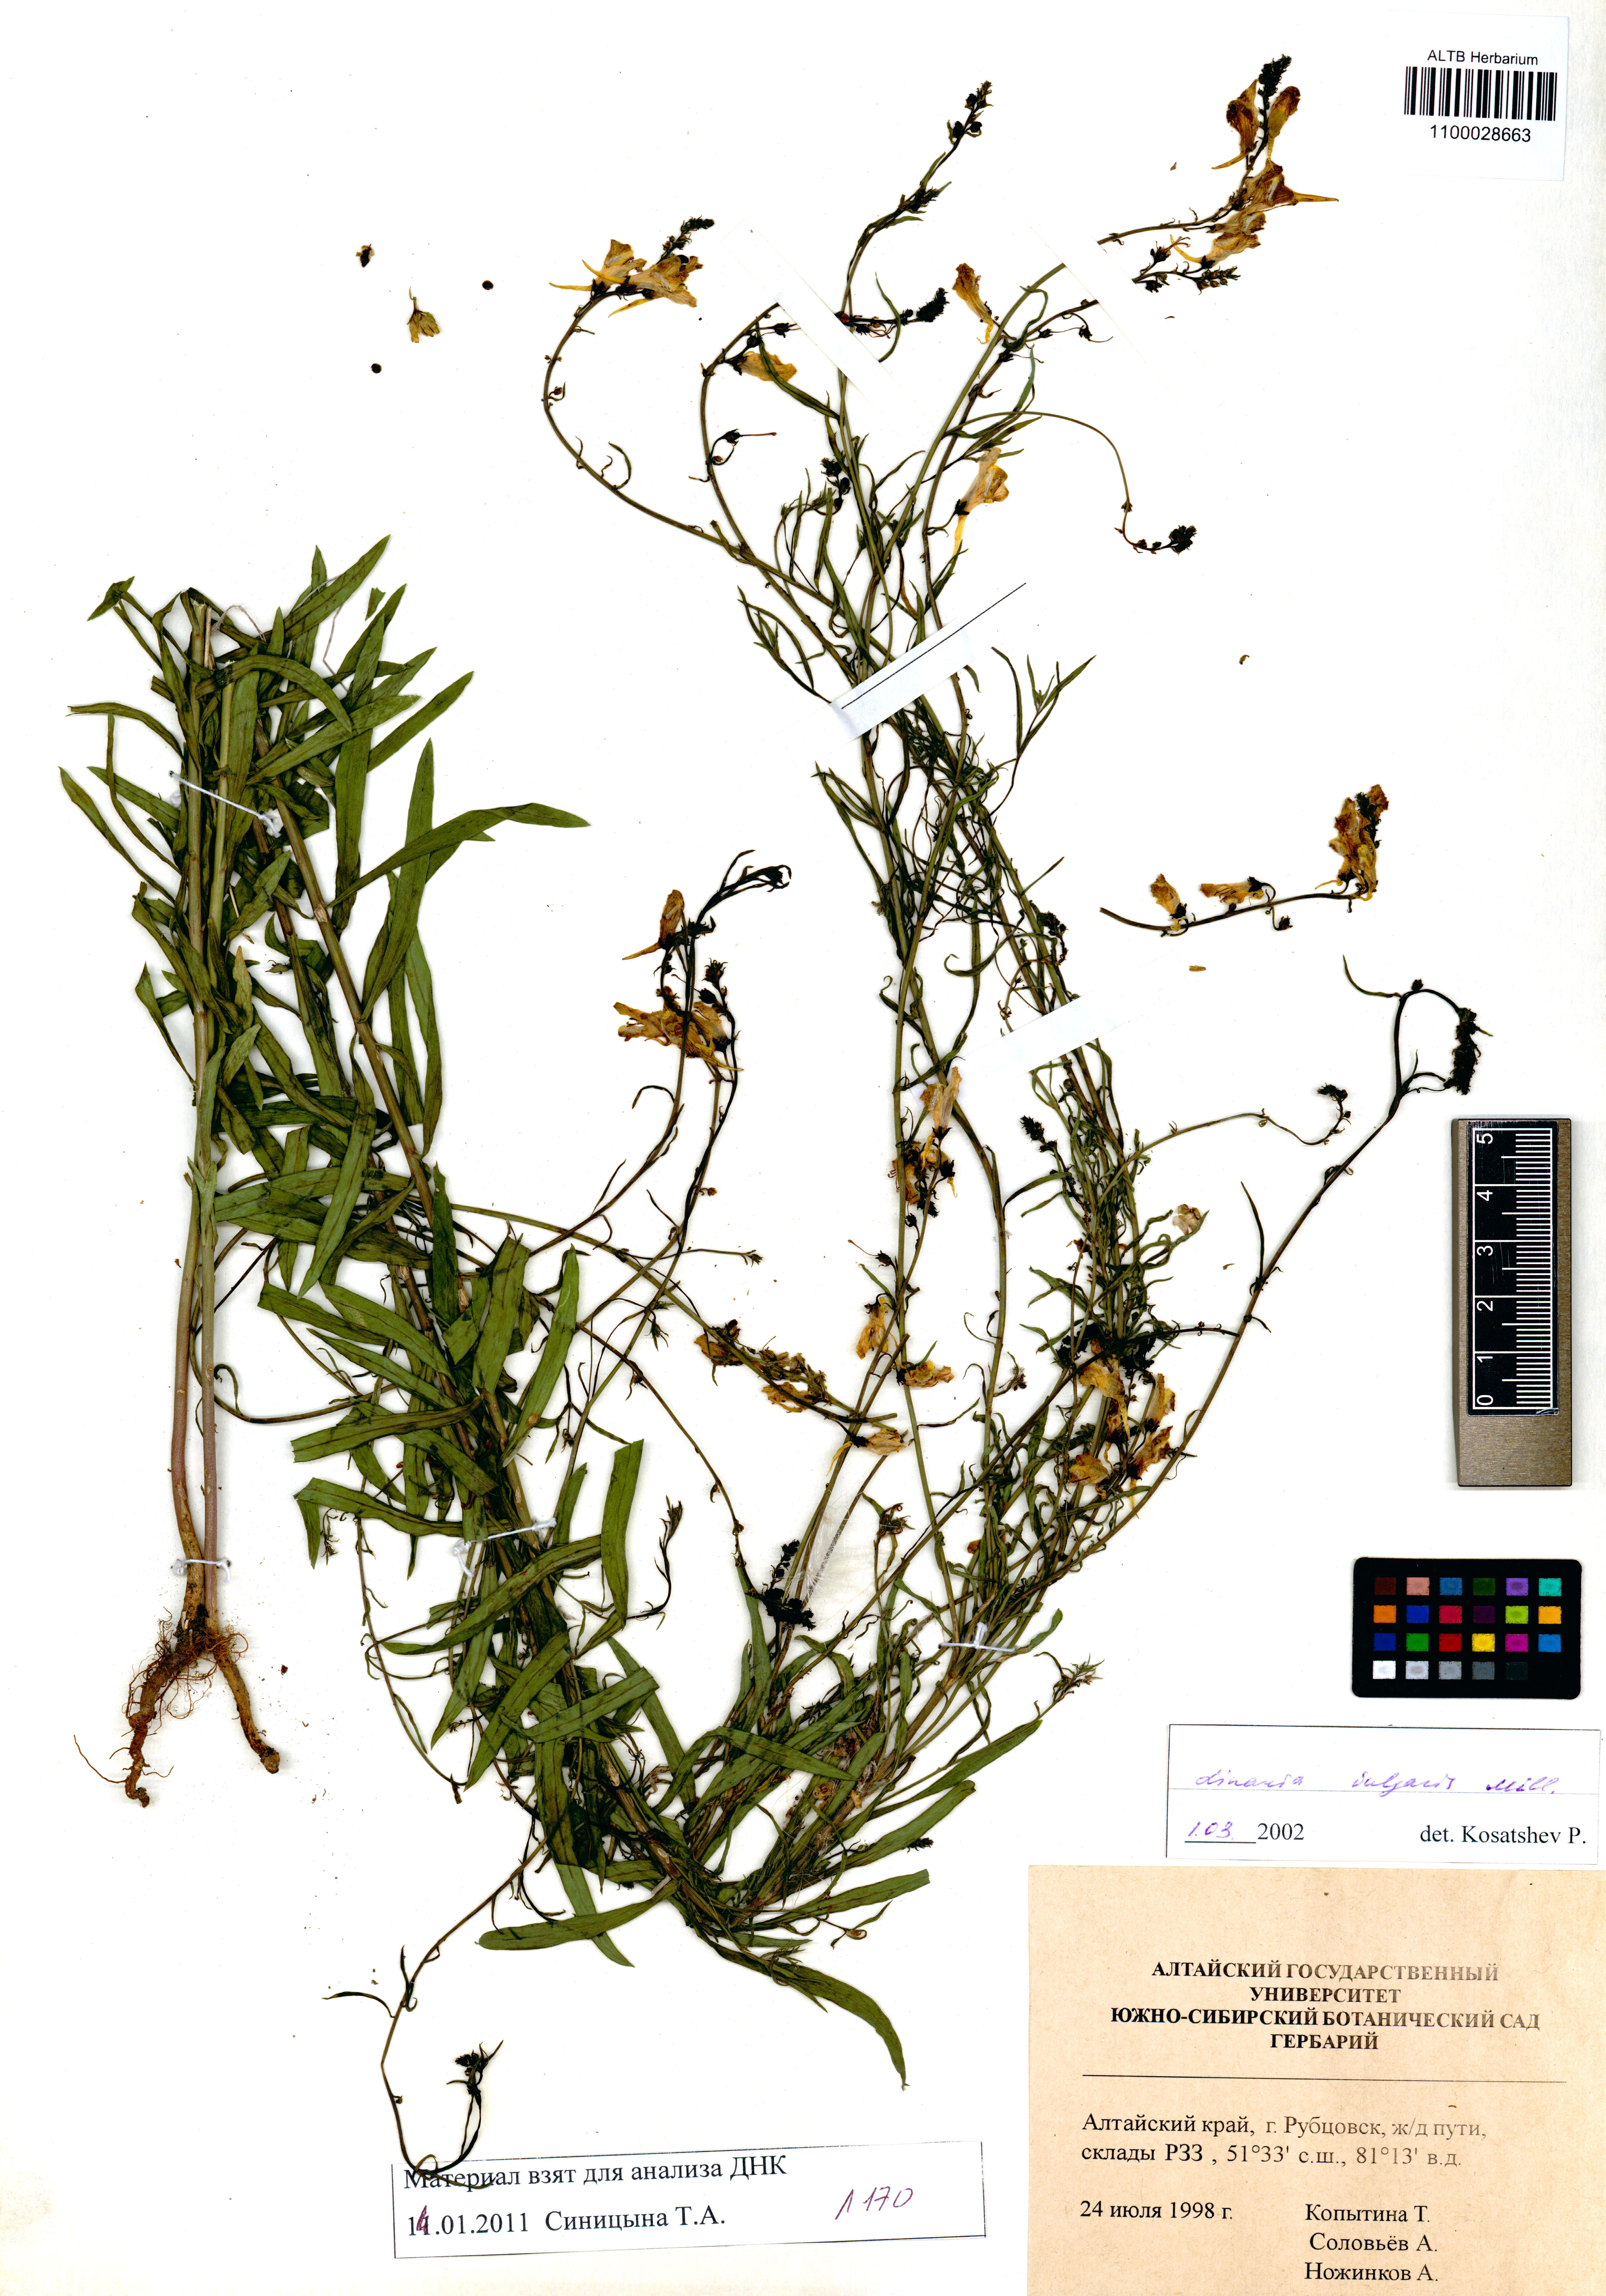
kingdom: Plantae
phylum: Tracheophyta
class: Magnoliopsida
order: Lamiales
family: Plantaginaceae
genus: Linaria
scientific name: Linaria vulgaris
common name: Butter and eggs
